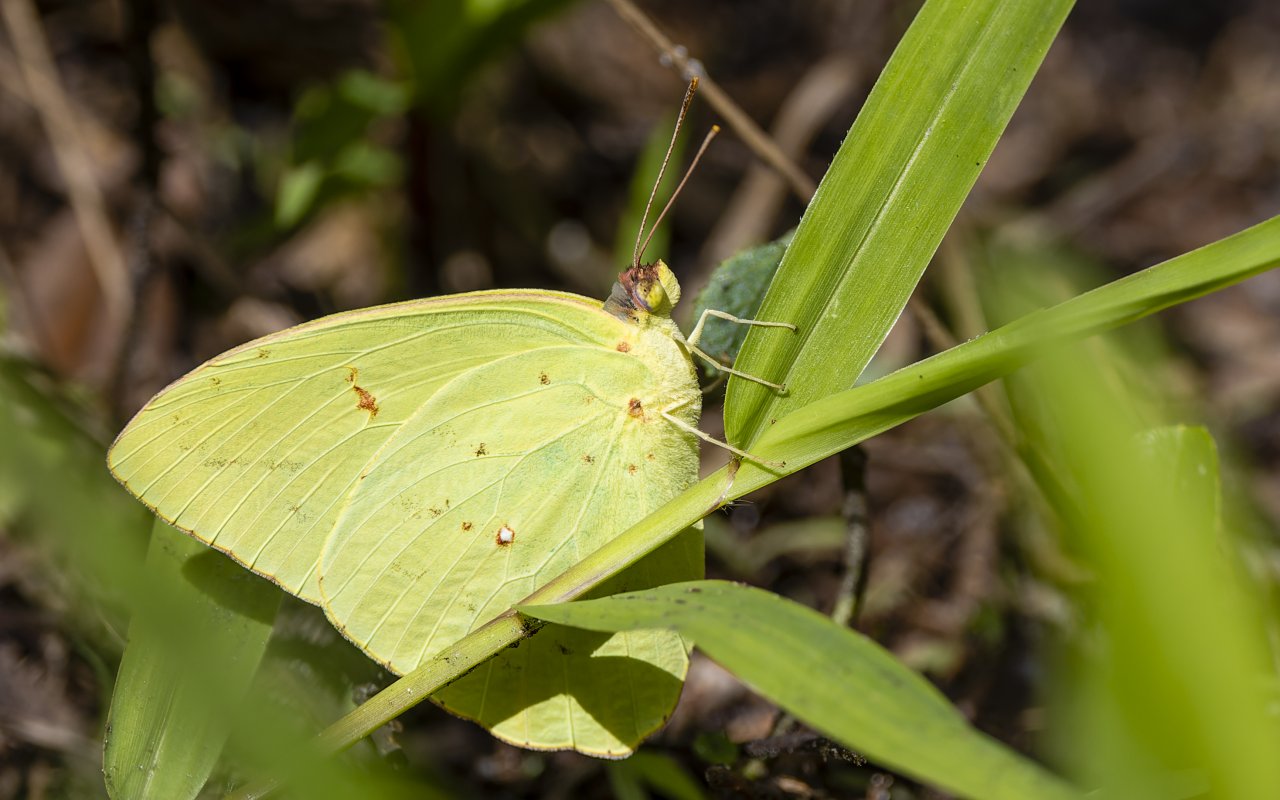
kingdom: Animalia
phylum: Arthropoda
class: Insecta
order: Lepidoptera
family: Pieridae
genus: Phoebis
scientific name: Phoebis sennae
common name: Cloudless Sulphur
